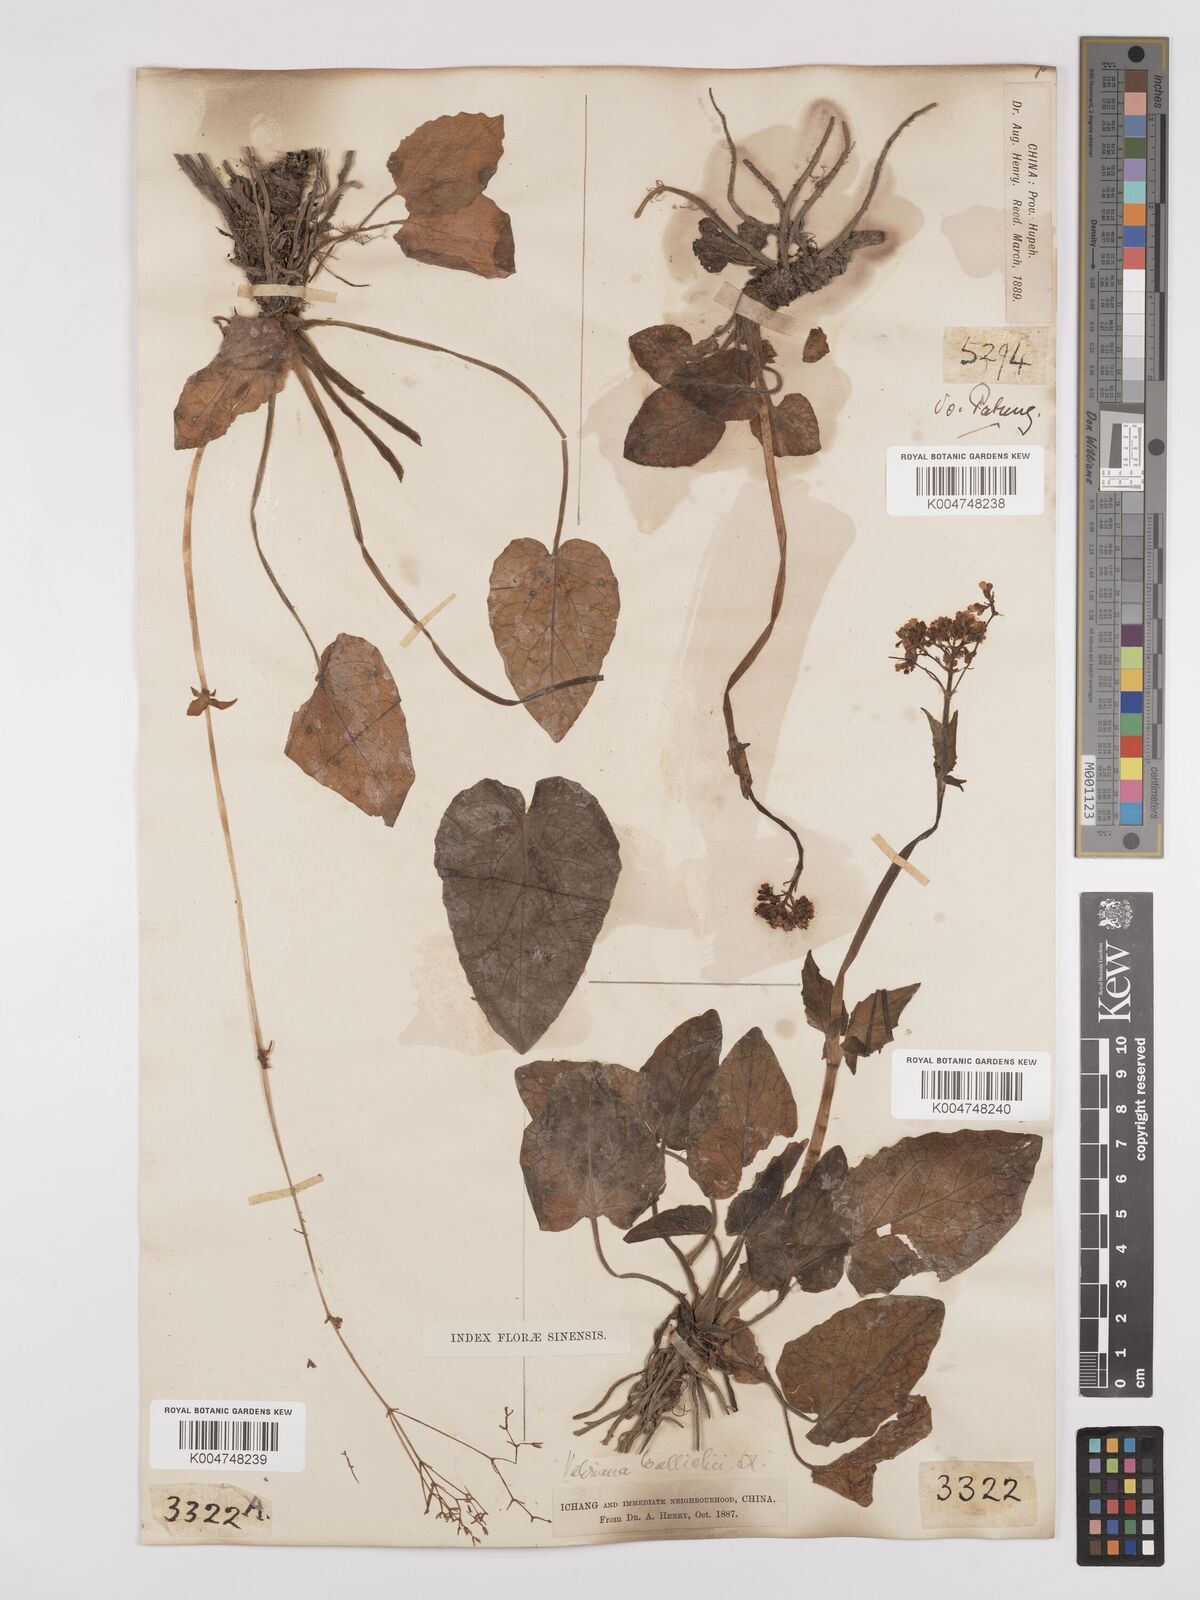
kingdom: Plantae
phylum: Tracheophyta
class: Magnoliopsida
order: Dipsacales
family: Caprifoliaceae
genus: Valeriana
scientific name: Valeriana
